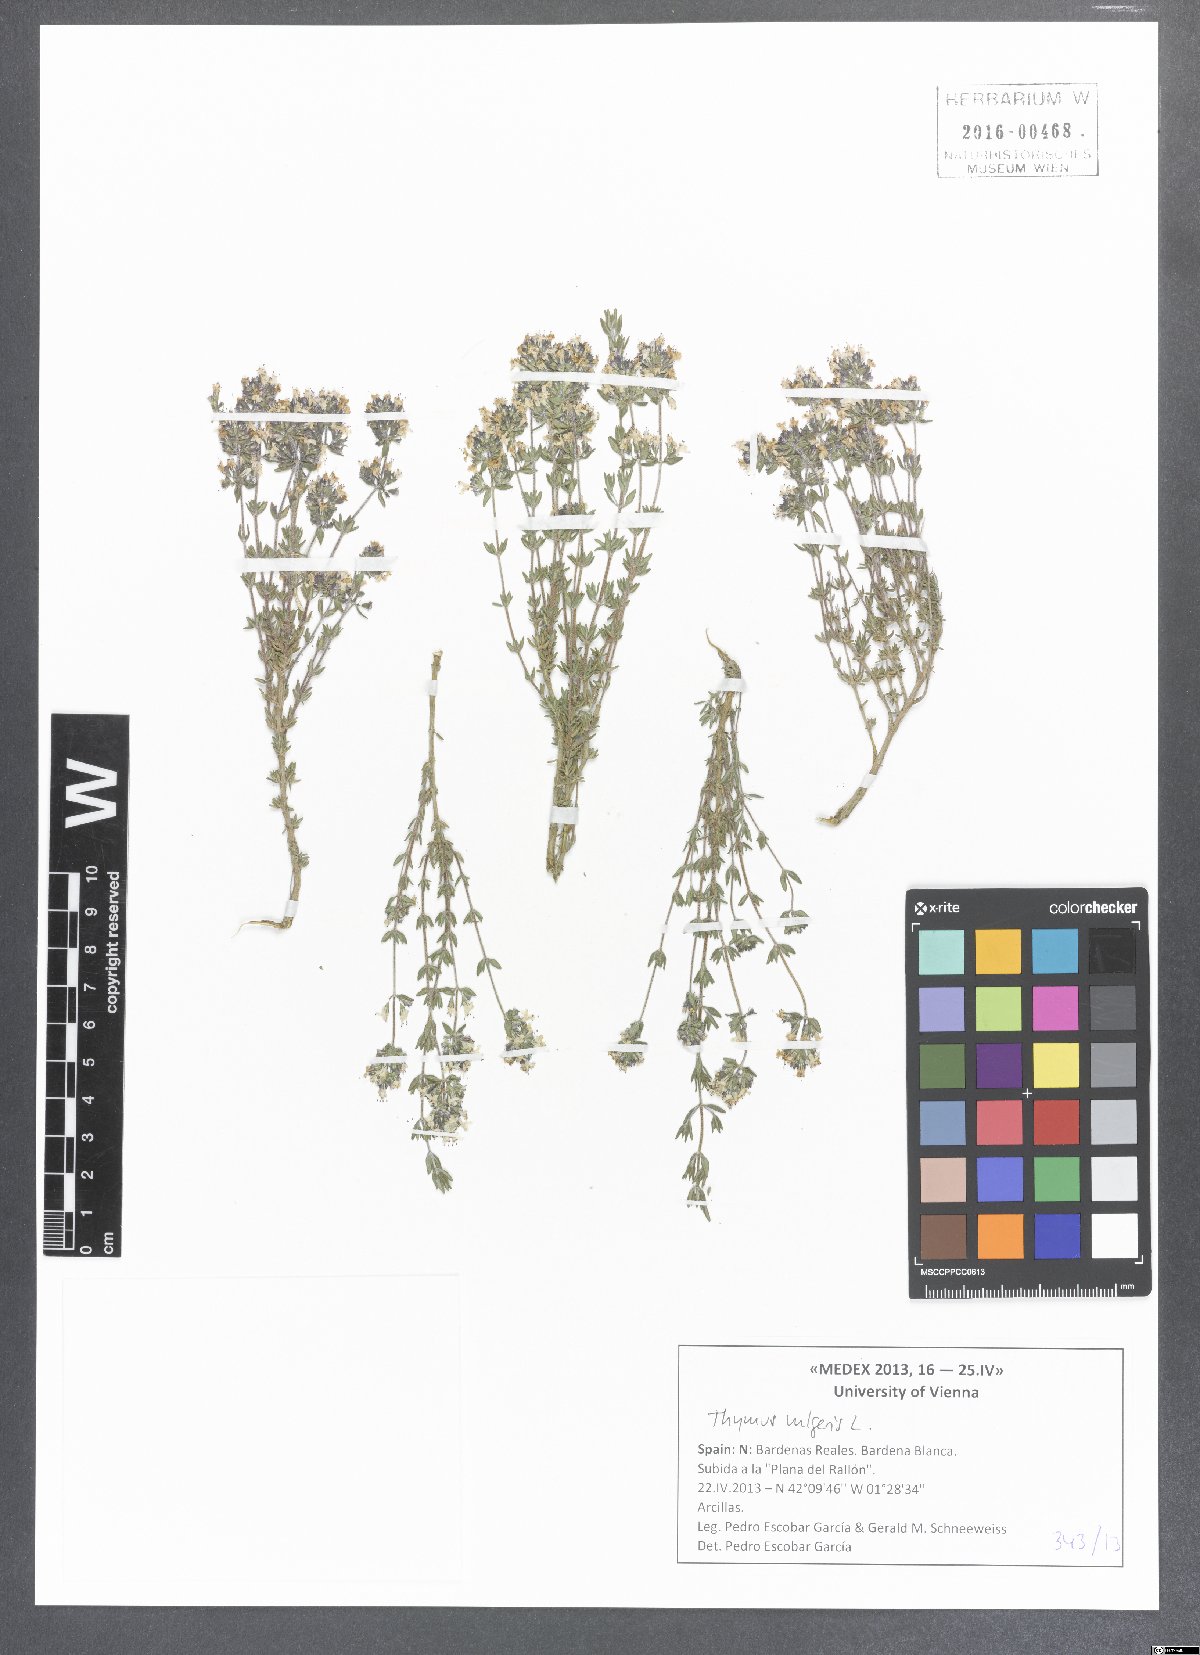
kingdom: Plantae
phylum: Tracheophyta
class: Magnoliopsida
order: Lamiales
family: Lamiaceae
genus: Thymus
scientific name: Thymus vulgaris
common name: Garden thyme
